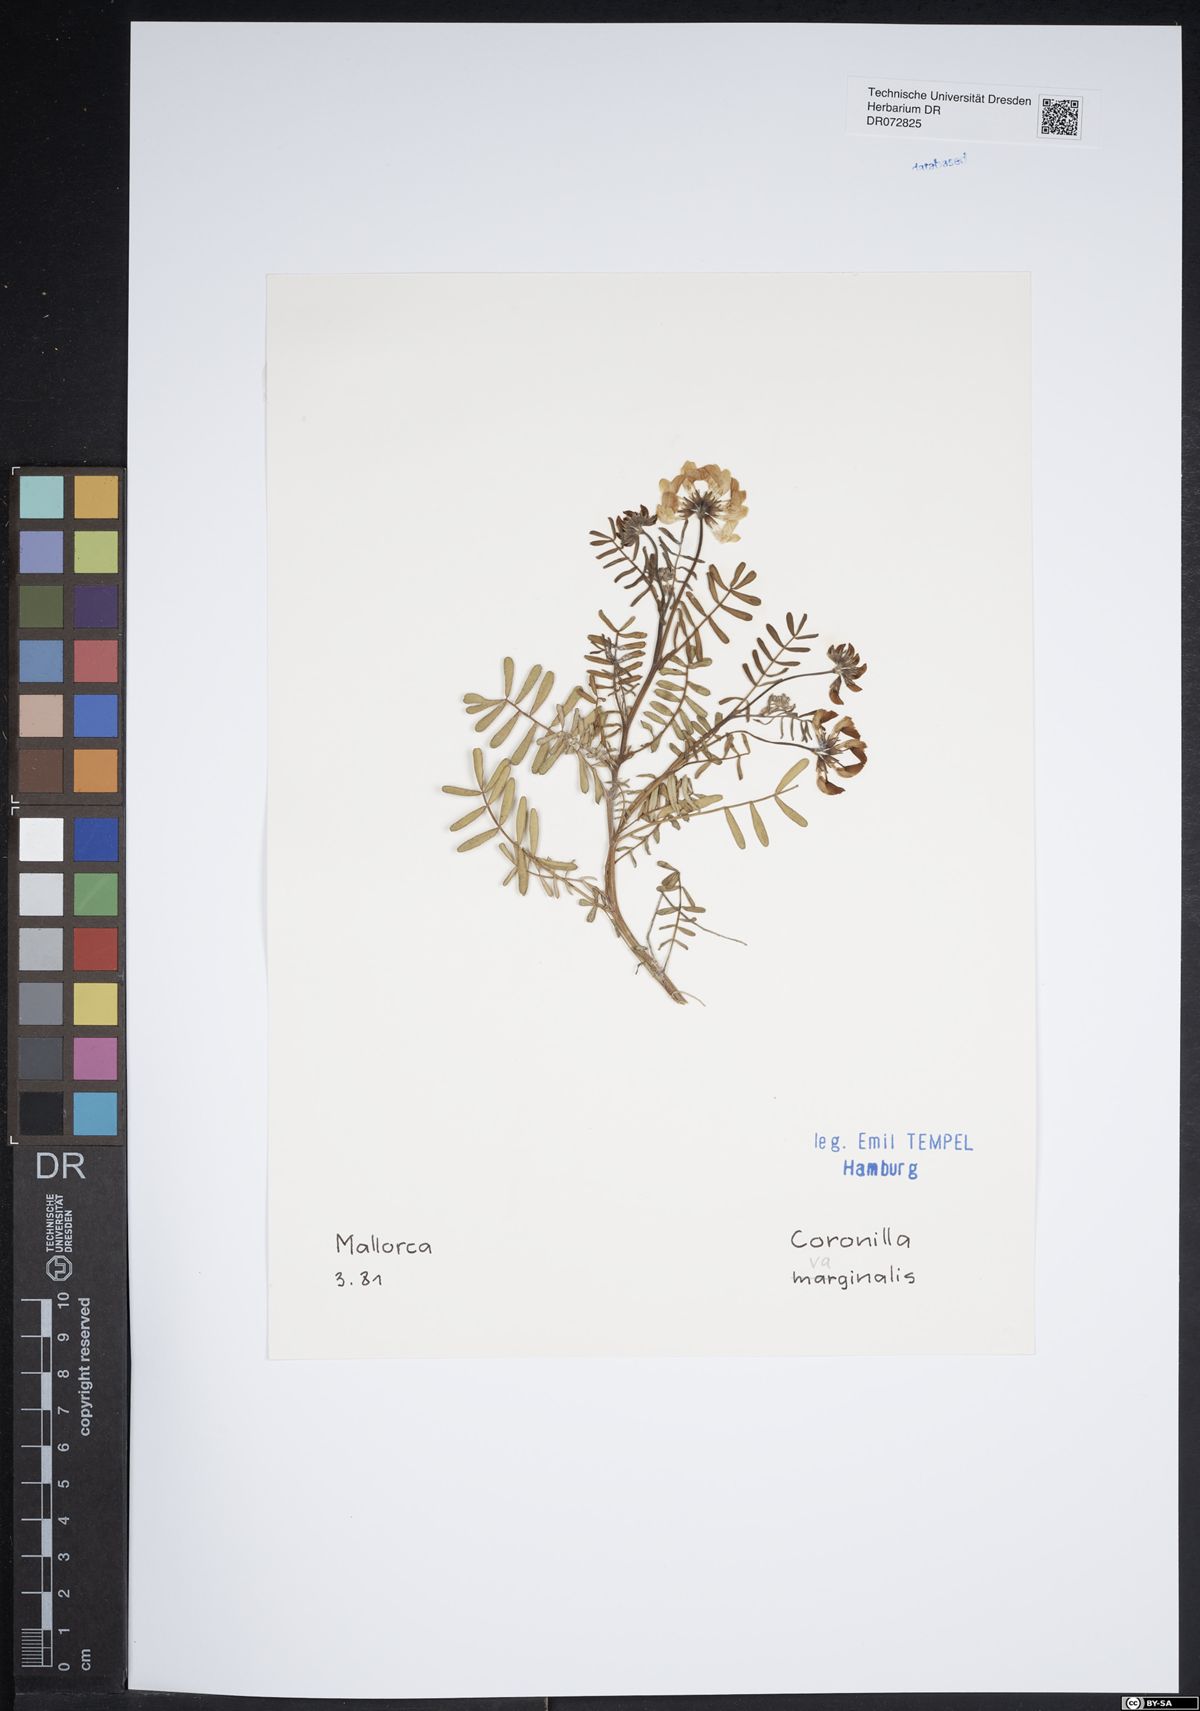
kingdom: Plantae
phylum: Tracheophyta
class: Magnoliopsida
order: Fabales
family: Fabaceae
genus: Coronilla
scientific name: Coronilla vaginalis
